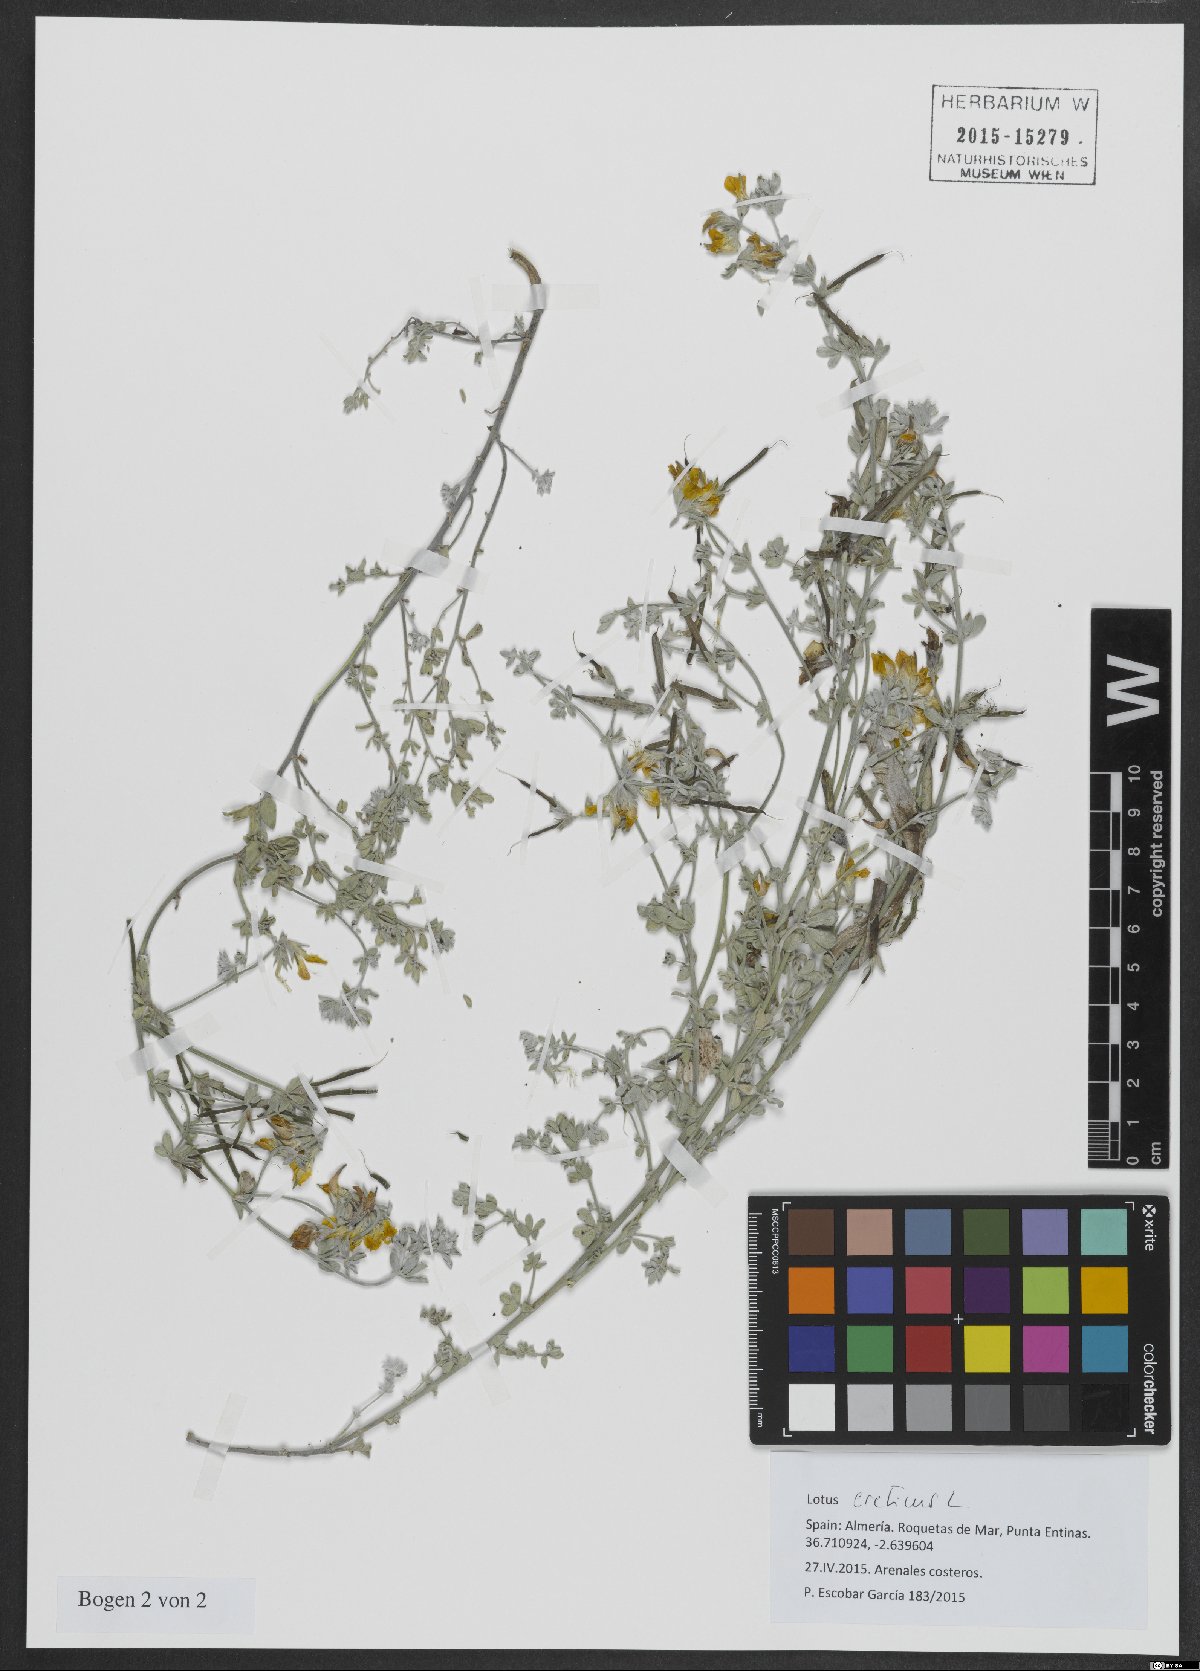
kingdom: Plantae
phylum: Tracheophyta
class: Magnoliopsida
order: Fabales
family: Fabaceae
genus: Lotus
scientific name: Lotus creticus
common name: Cretan bird's-foot trefoil
